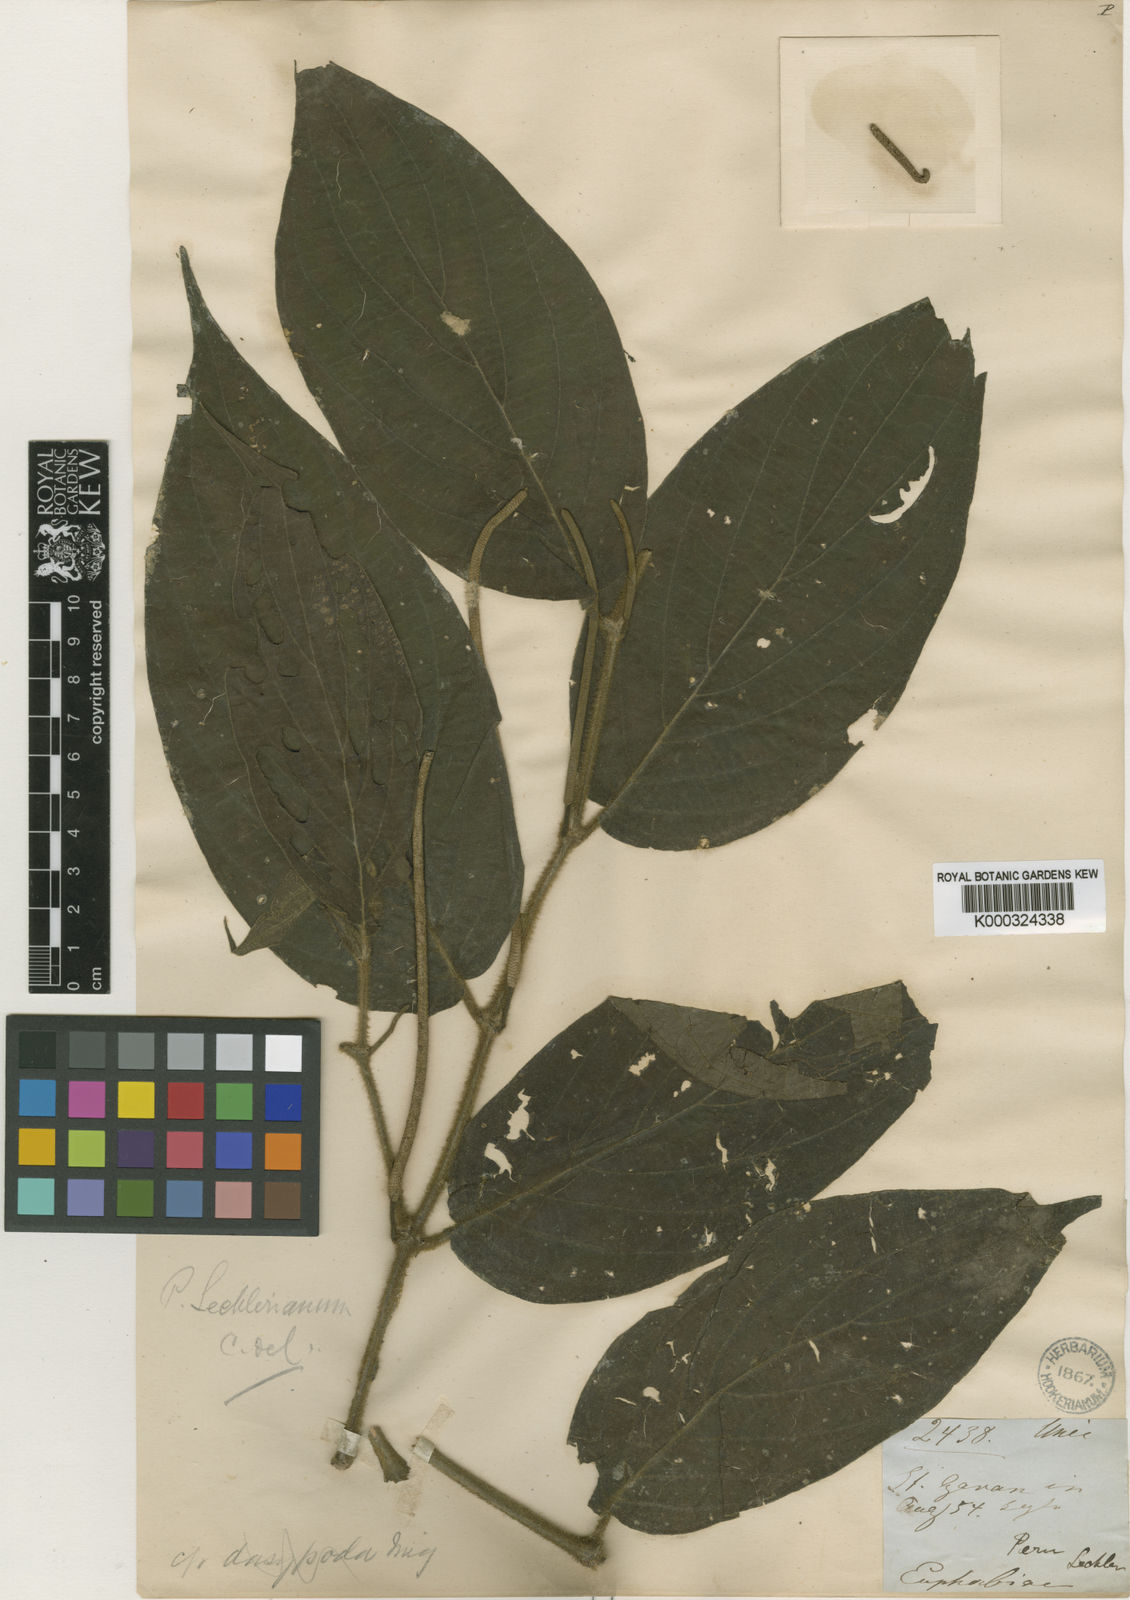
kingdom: Plantae
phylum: Tracheophyta
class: Magnoliopsida
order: Piperales
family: Piperaceae
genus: Piper
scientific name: Piper lechlerianum
